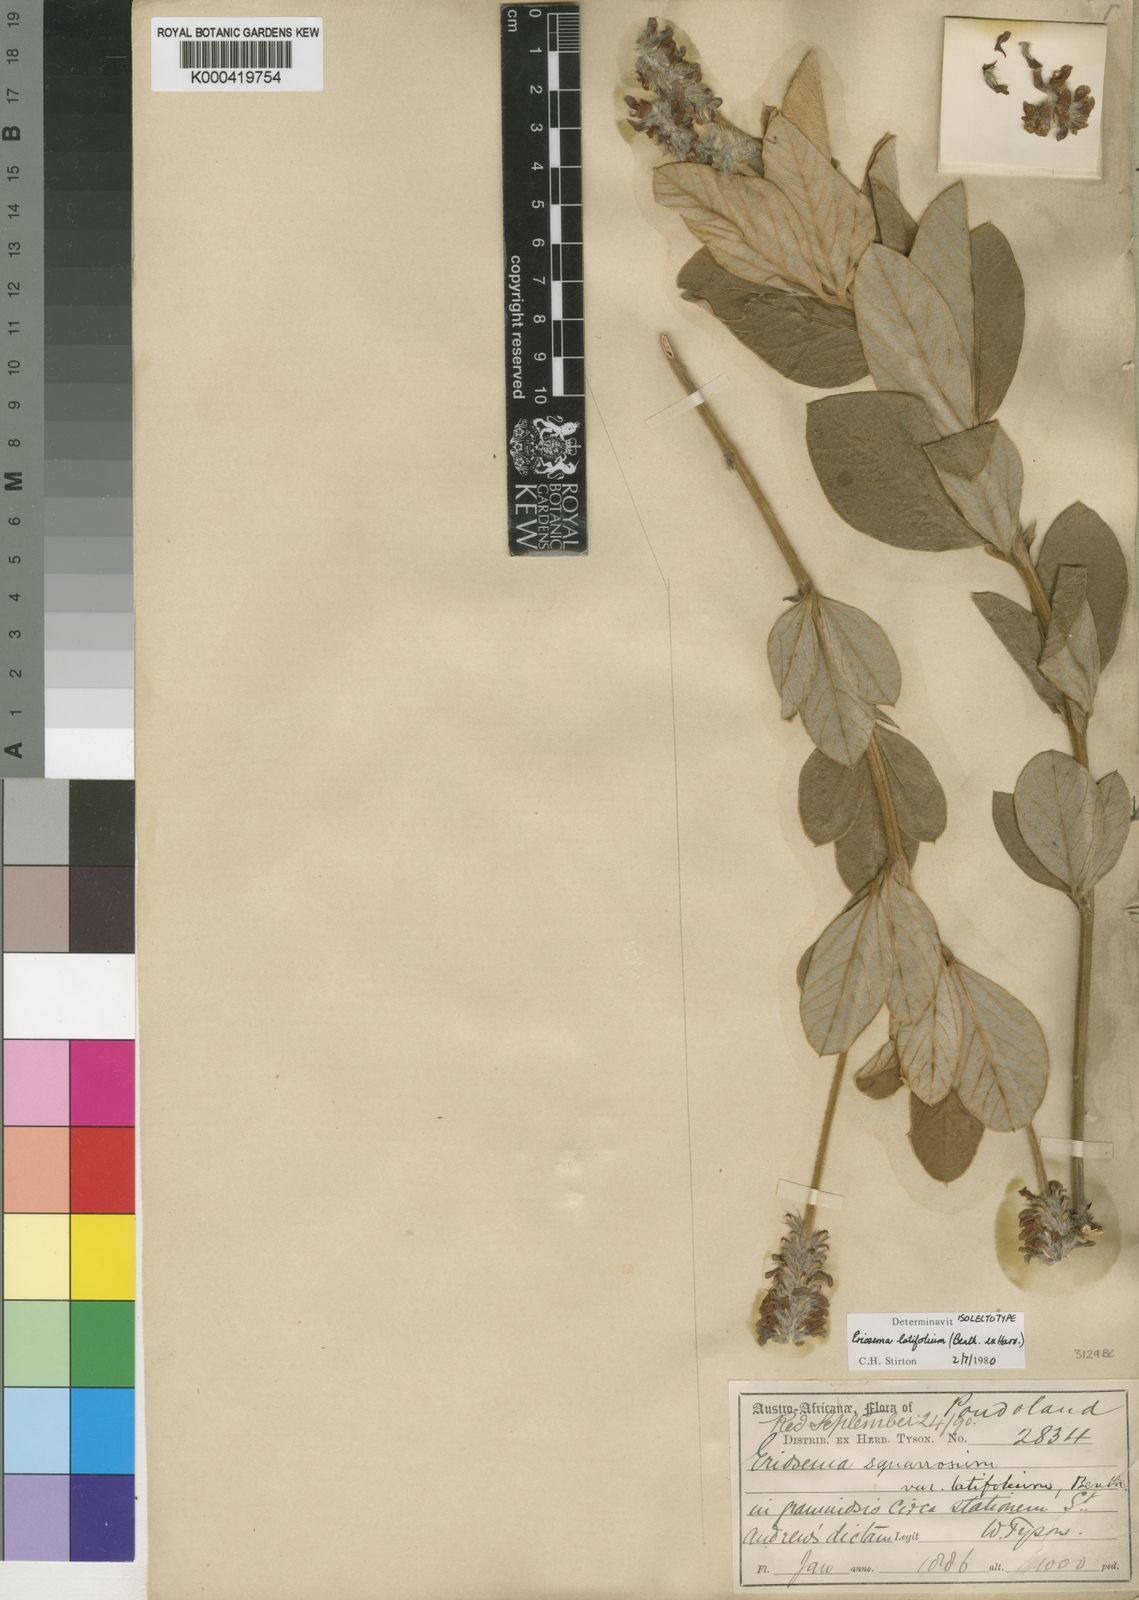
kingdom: Plantae
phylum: Tracheophyta
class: Magnoliopsida
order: Fabales
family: Fabaceae
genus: Eriosema
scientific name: Eriosema latifolium
